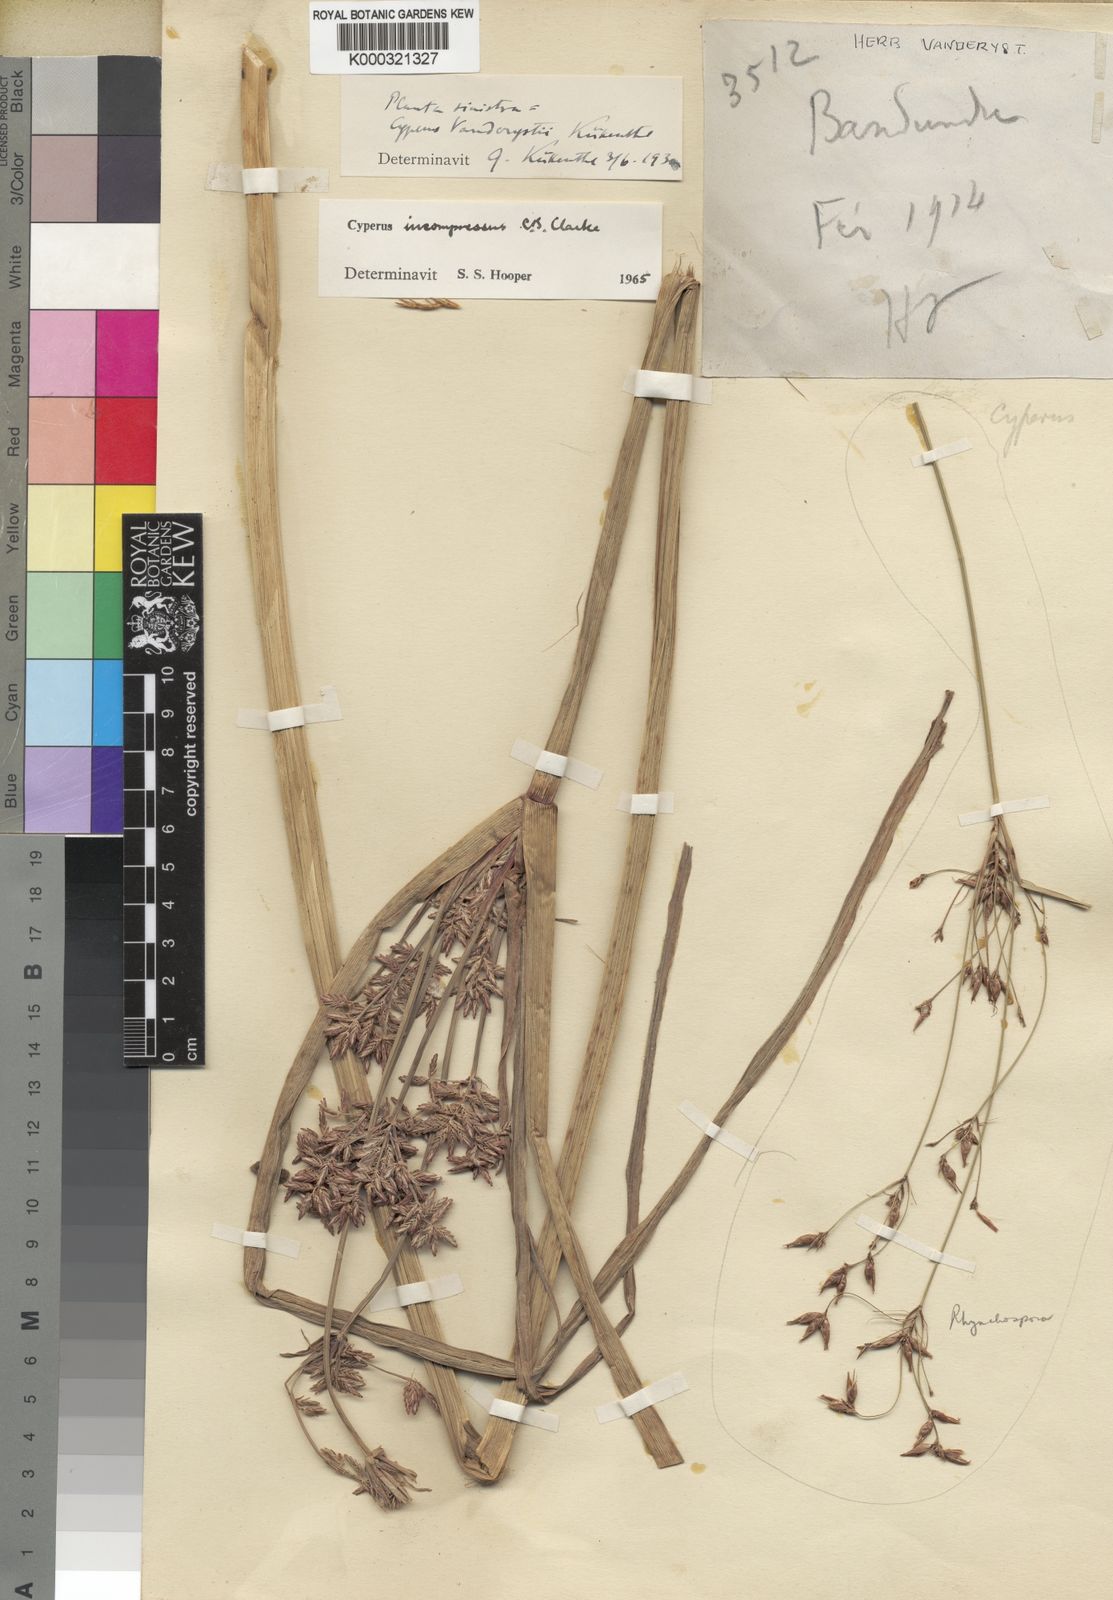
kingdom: Plantae
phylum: Tracheophyta
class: Liliopsida
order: Poales
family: Cyperaceae
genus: Cyperus
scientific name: Cyperus incompressus
